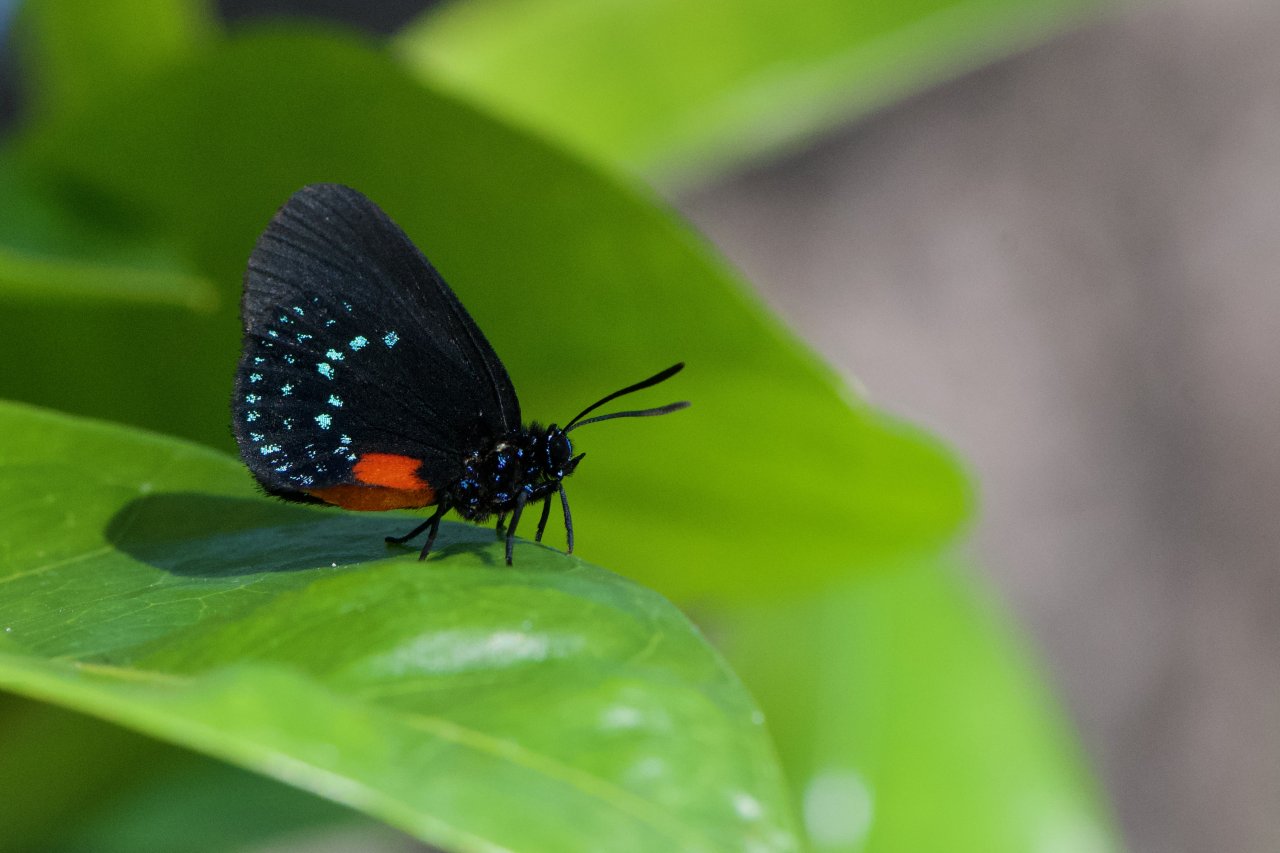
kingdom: Animalia
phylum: Arthropoda
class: Insecta
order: Lepidoptera
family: Lycaenidae
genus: Eumaeus
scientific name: Eumaeus atala
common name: Atala
